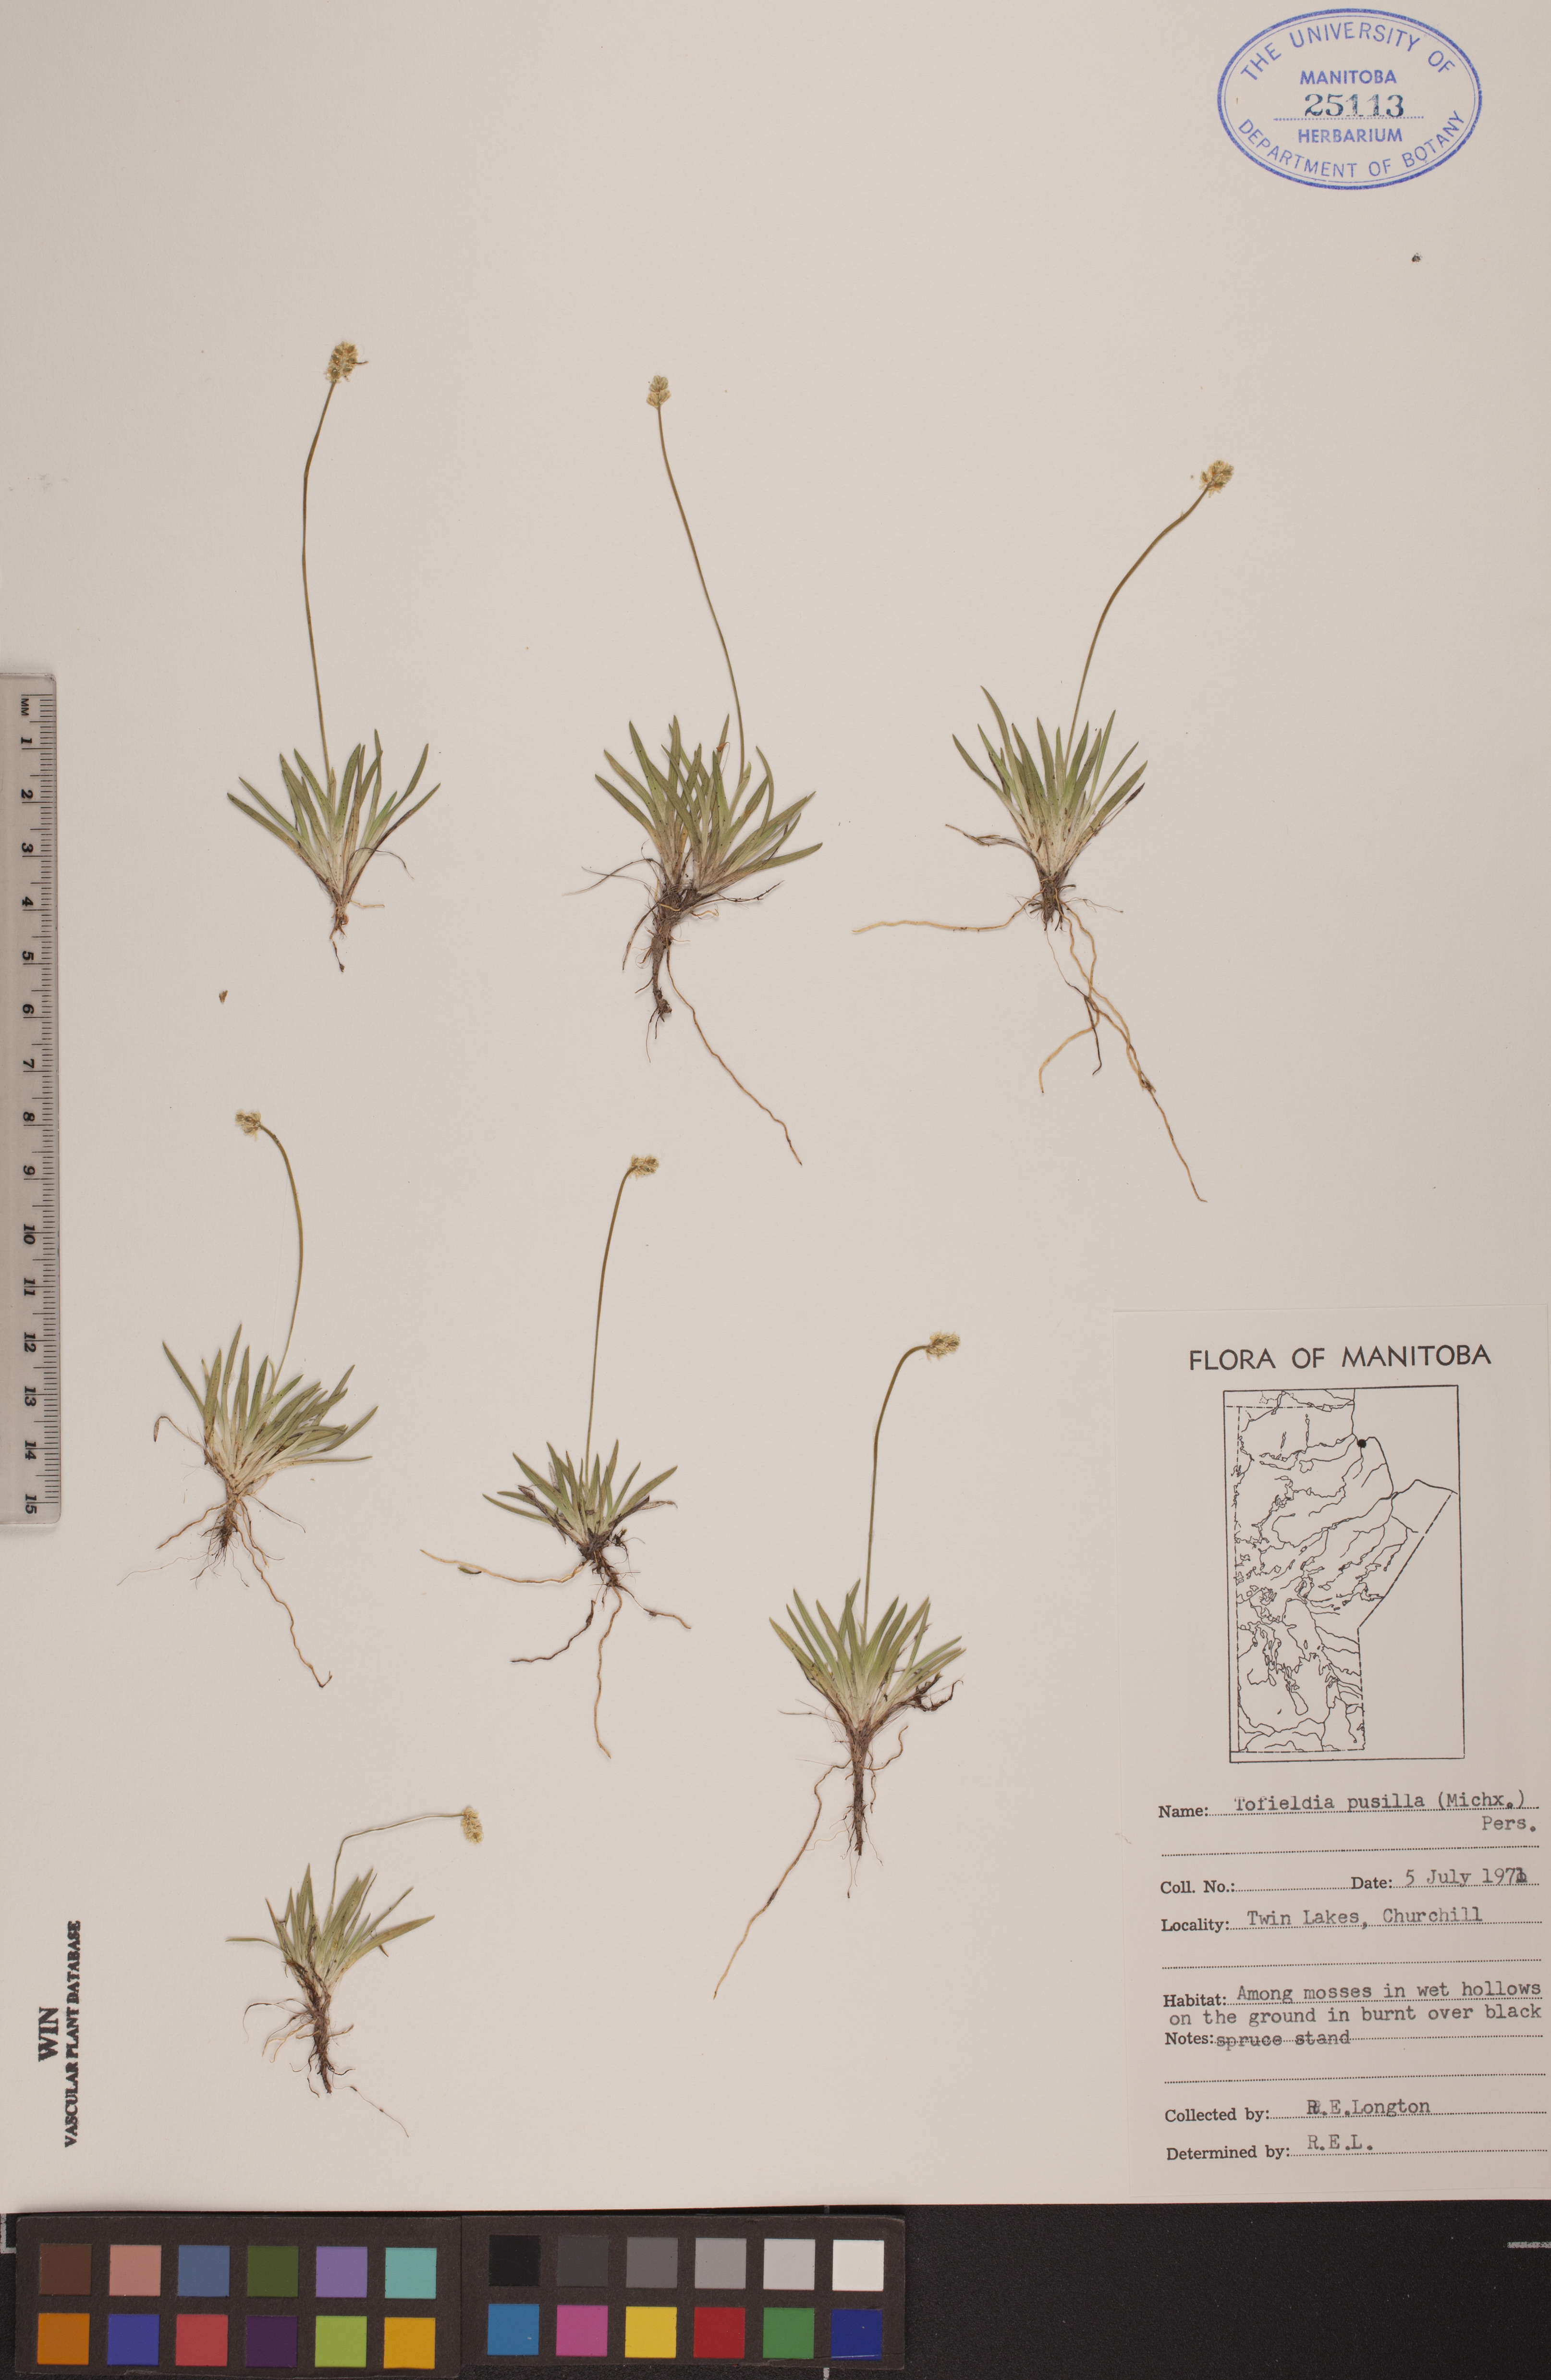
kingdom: Plantae
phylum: Tracheophyta
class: Liliopsida
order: Alismatales
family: Tofieldiaceae
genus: Tofieldia
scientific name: Tofieldia pusilla
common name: Scottish false asphodel
